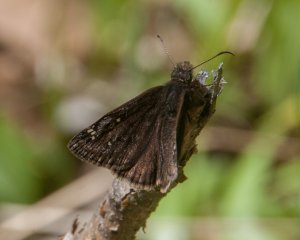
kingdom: Animalia
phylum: Arthropoda
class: Insecta
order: Lepidoptera
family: Hesperiidae
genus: Gesta
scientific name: Gesta
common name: Juvenal's Duskywing
